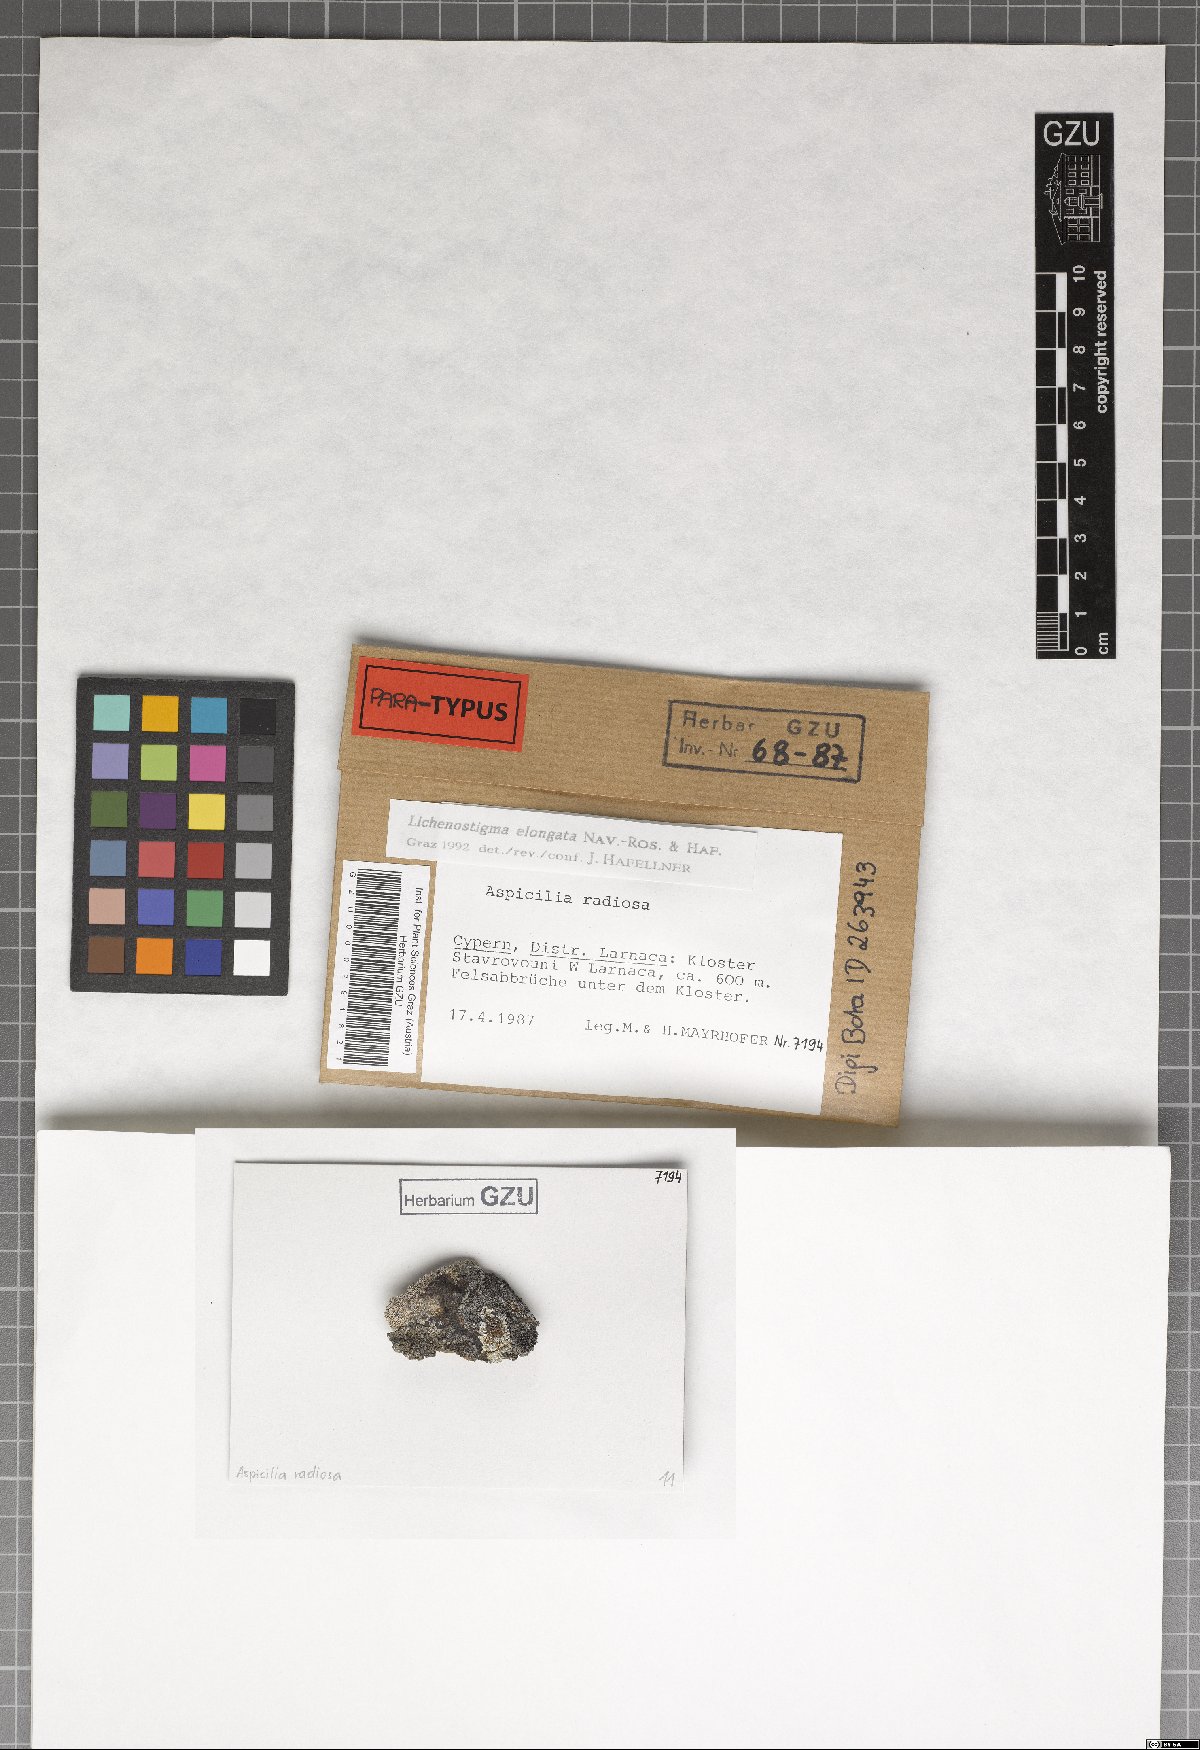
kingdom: Fungi
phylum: Ascomycota
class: Arthoniomycetes
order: Lichenostigmatales
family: Phaeococcomycetaceae
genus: Lichenostigma
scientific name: Lichenostigma elongatum
